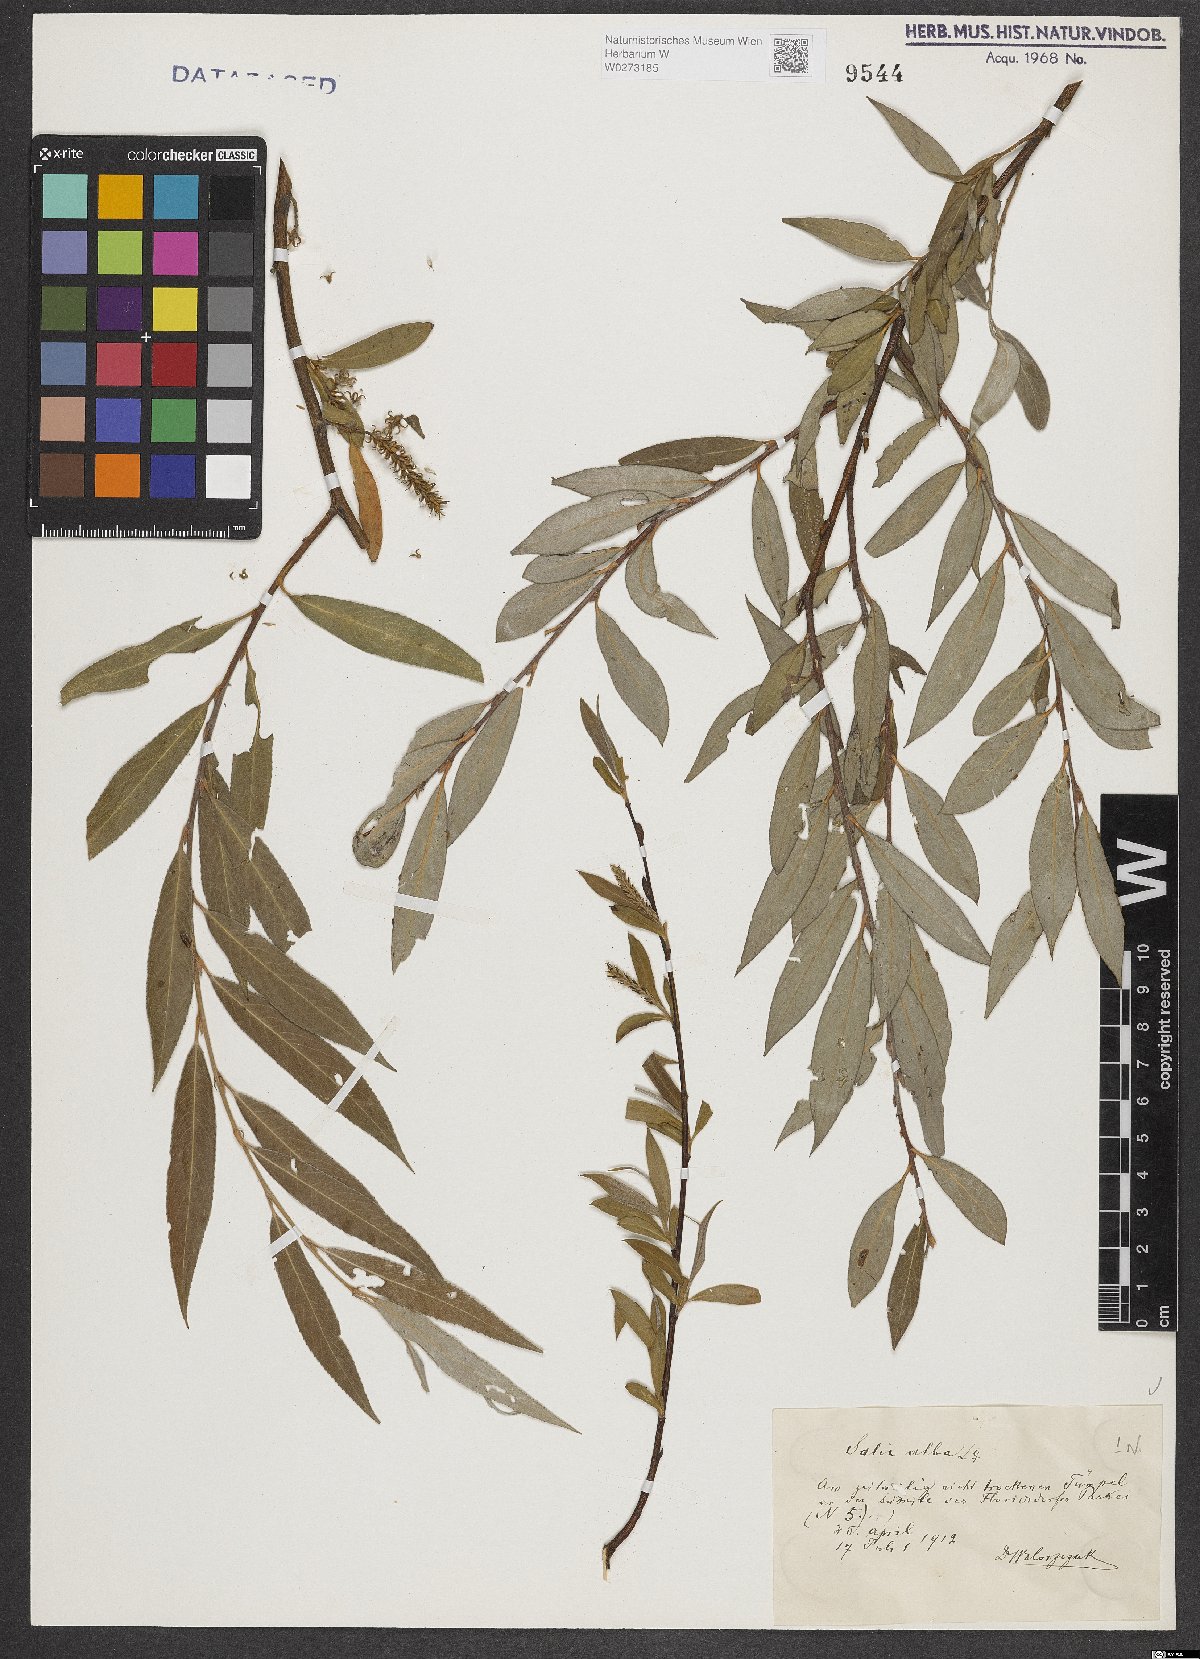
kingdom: Plantae
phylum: Tracheophyta
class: Magnoliopsida
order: Malpighiales
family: Salicaceae
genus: Salix
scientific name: Salix alba
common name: White willow
